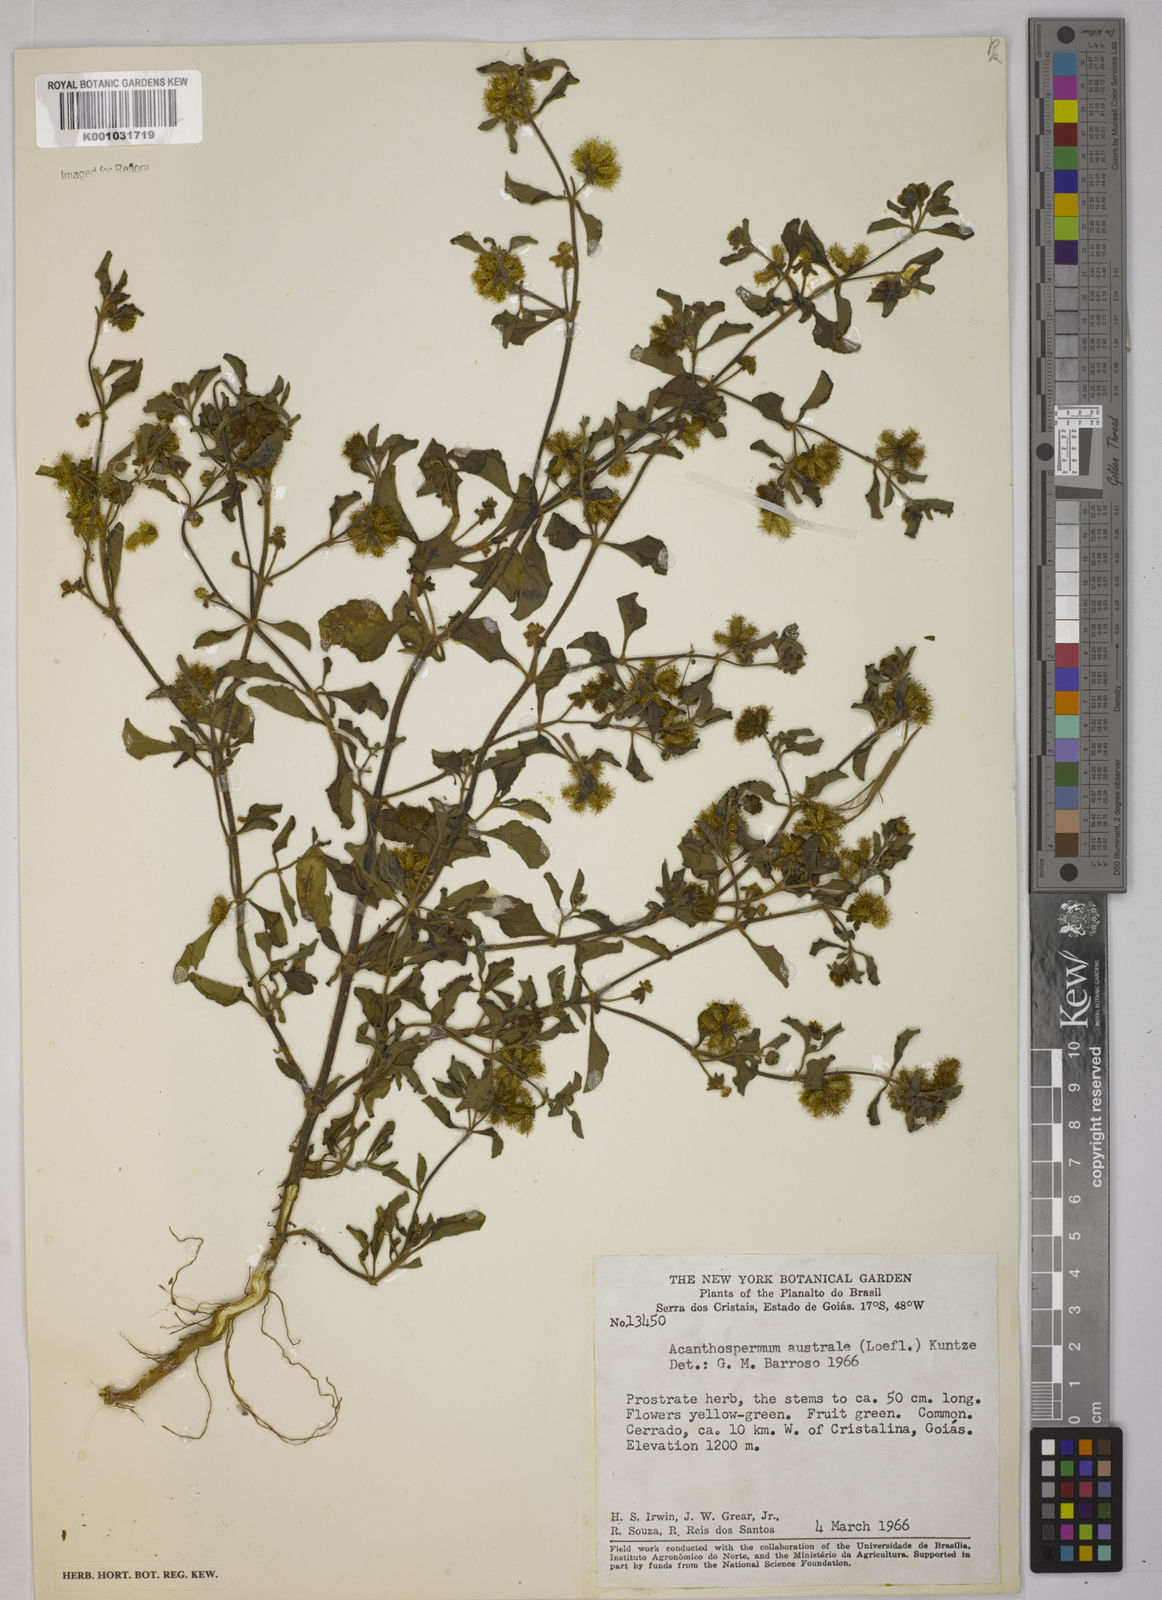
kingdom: Plantae
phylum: Tracheophyta
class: Magnoliopsida
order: Asterales
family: Asteraceae
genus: Acanthospermum
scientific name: Acanthospermum australe
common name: Paraguayan starbur
